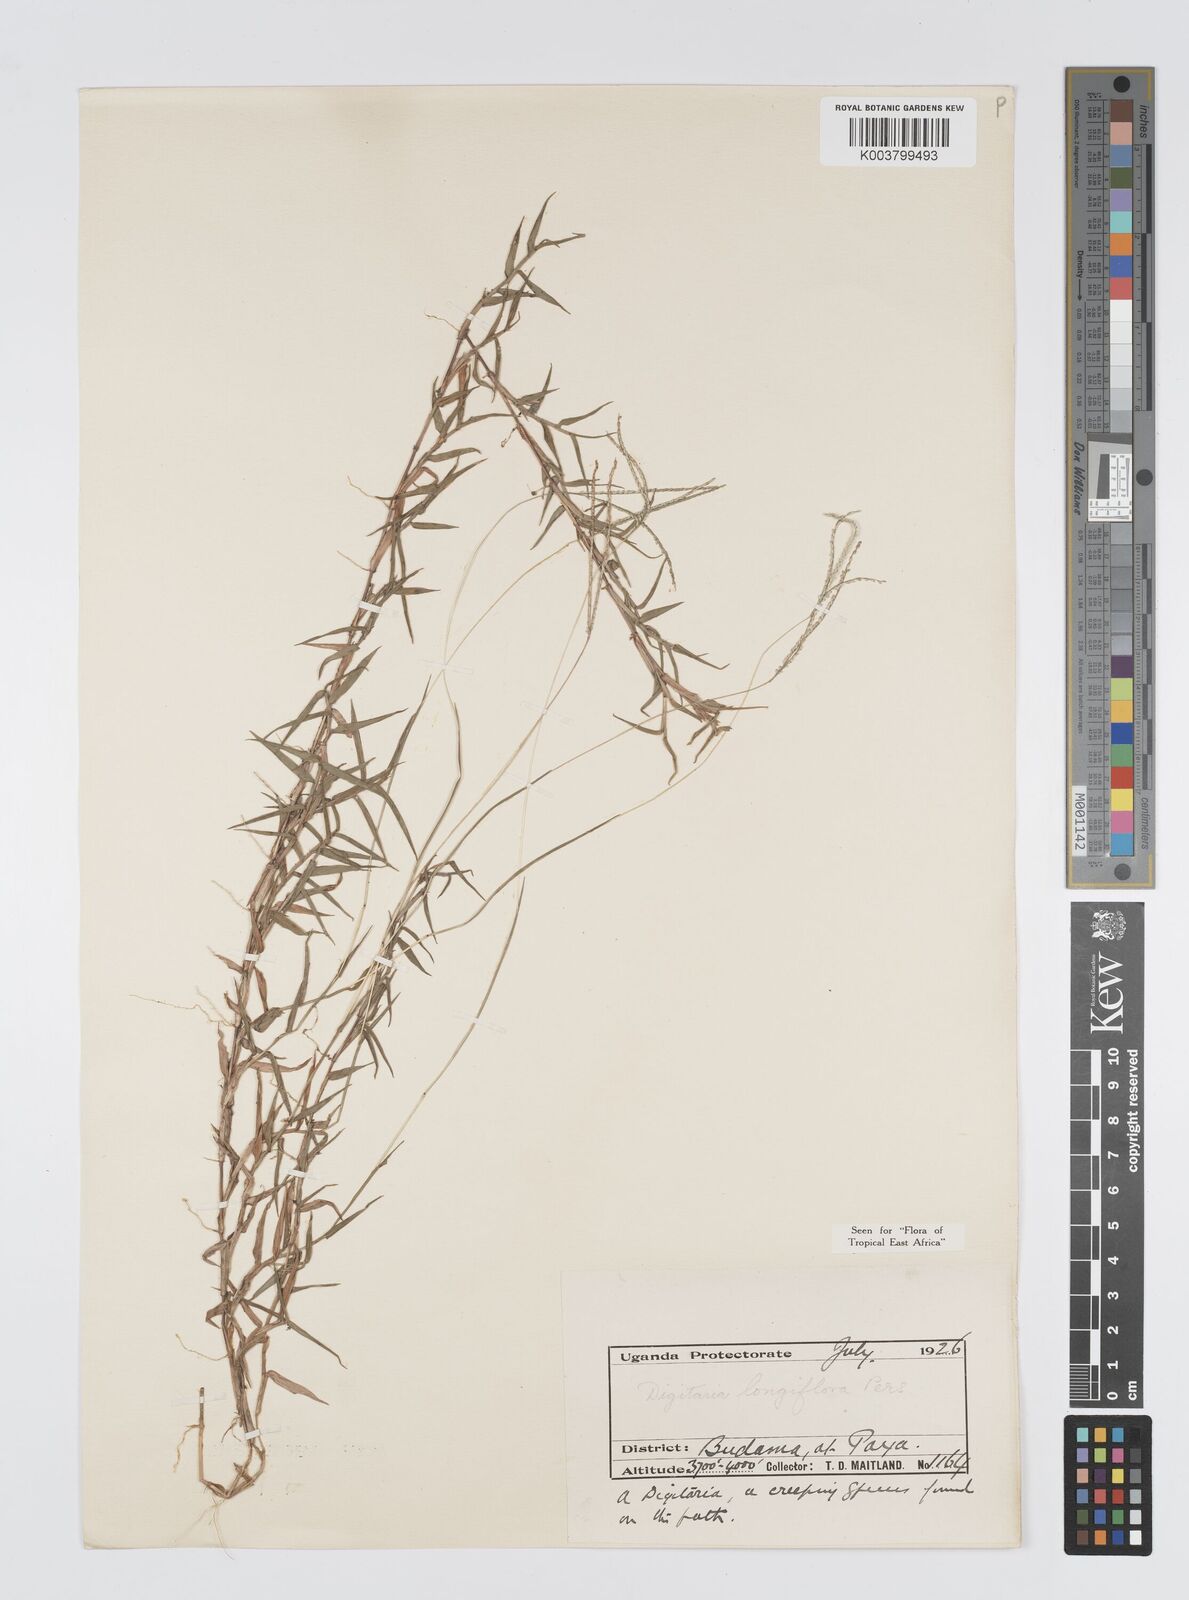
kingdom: Plantae
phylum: Tracheophyta
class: Liliopsida
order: Poales
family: Poaceae
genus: Digitaria
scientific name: Digitaria longiflora
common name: Wire crabgrass
